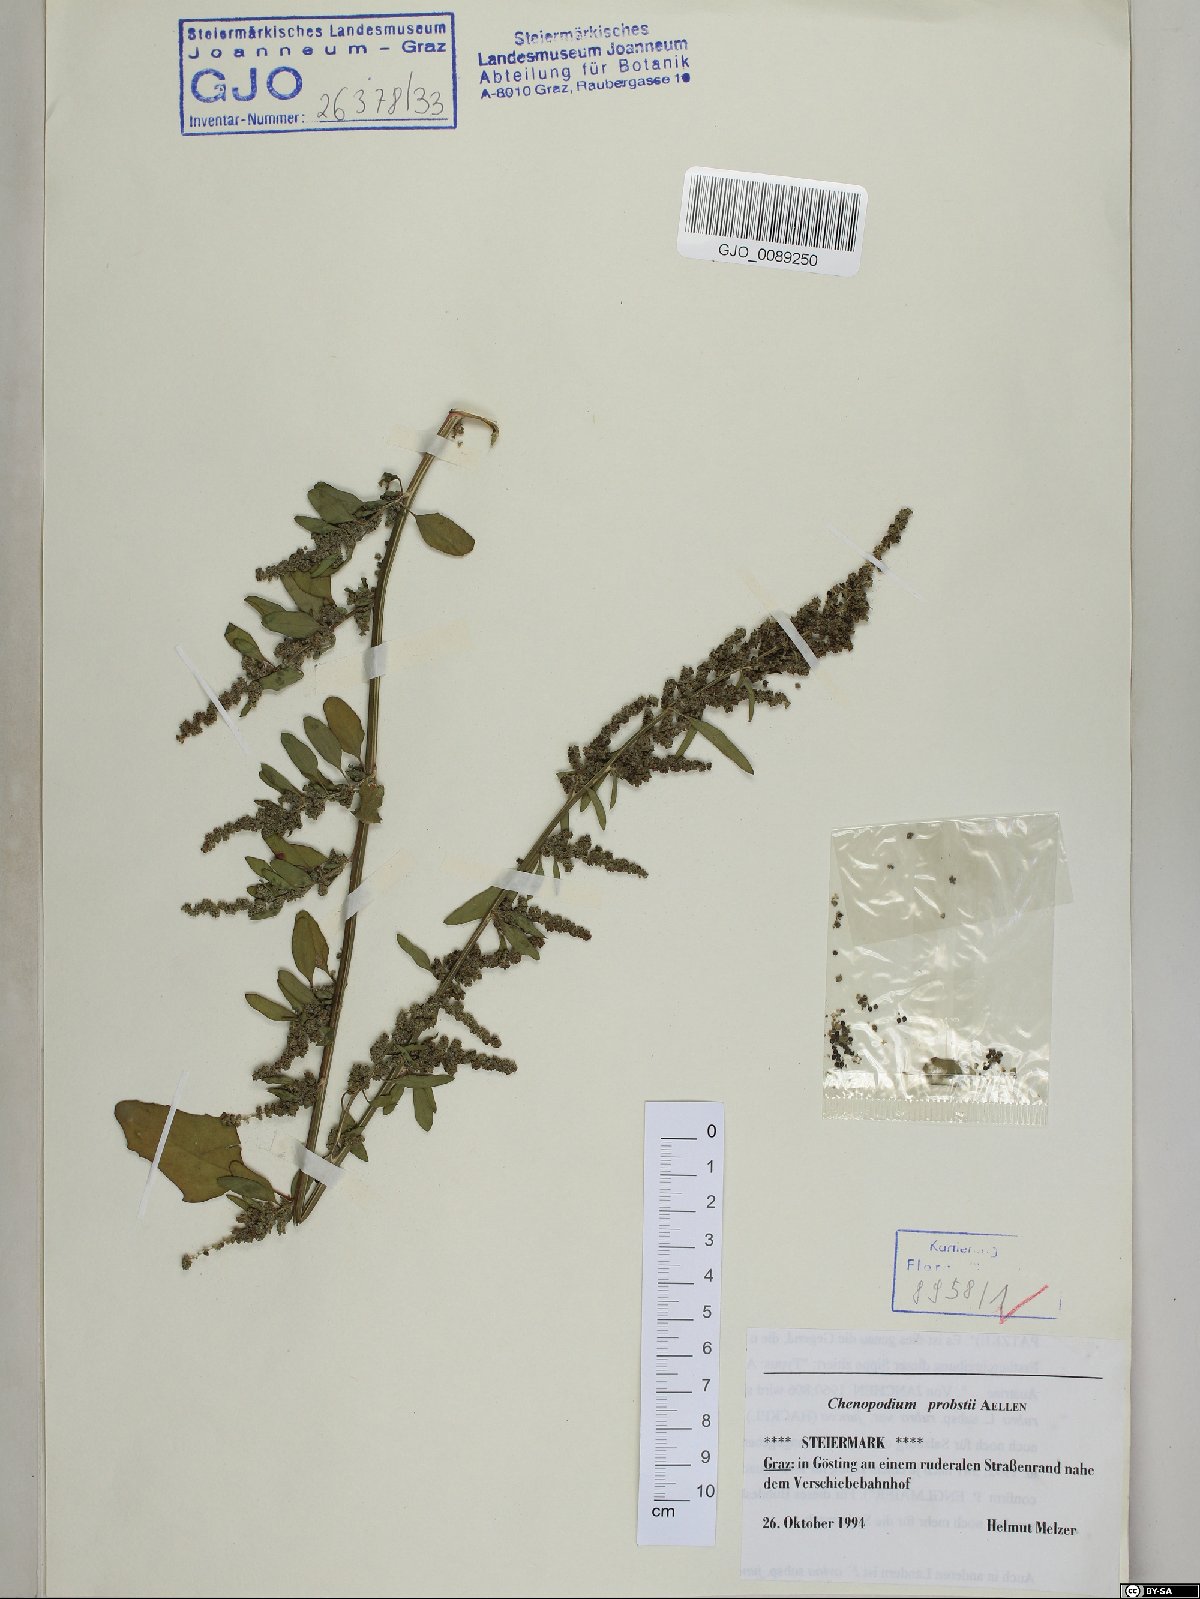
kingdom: Plantae
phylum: Tracheophyta
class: Magnoliopsida
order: Caryophyllales
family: Amaranthaceae
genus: Chenopodium
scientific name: Chenopodium probstii
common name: Probst's goosefoot
